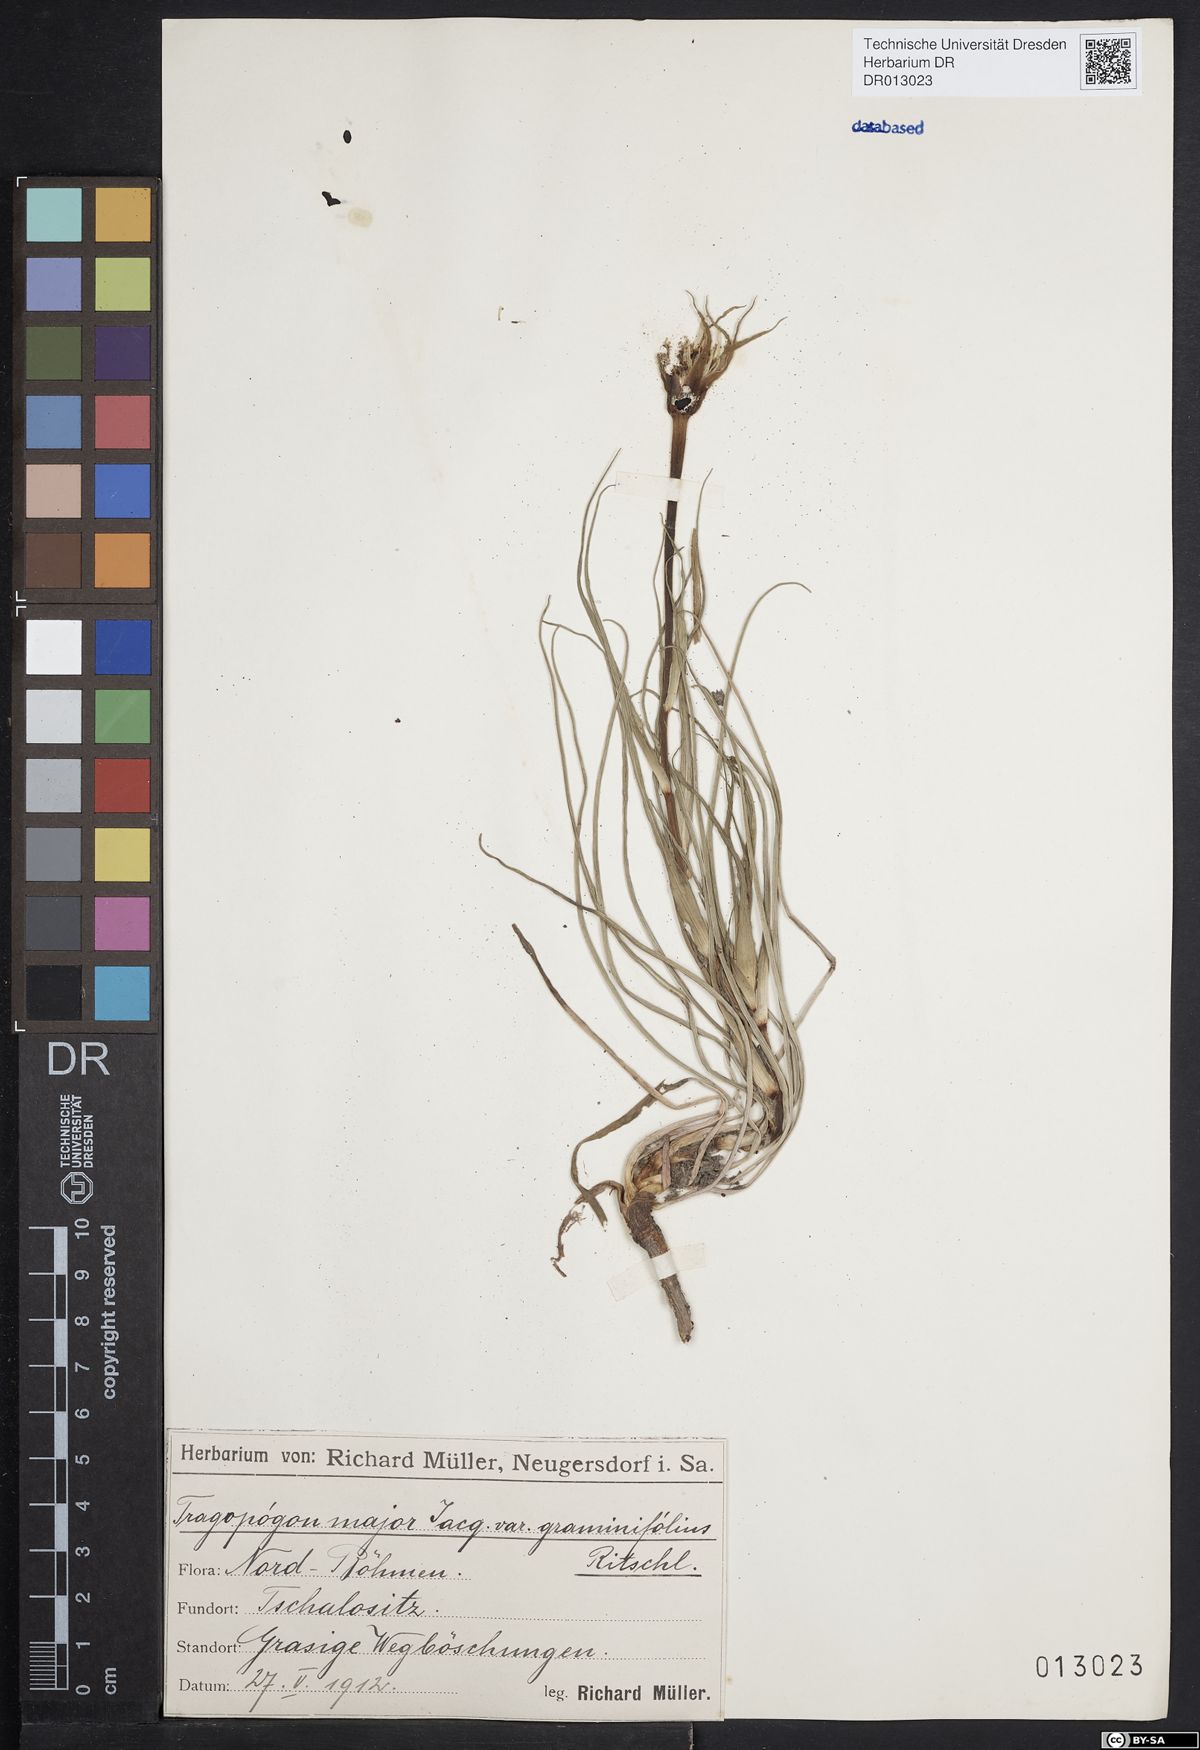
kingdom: Plantae
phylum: Tracheophyta
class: Magnoliopsida
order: Asterales
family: Asteraceae
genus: Tragopogon
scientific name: Tragopogon dubius
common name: Yellow salsify
